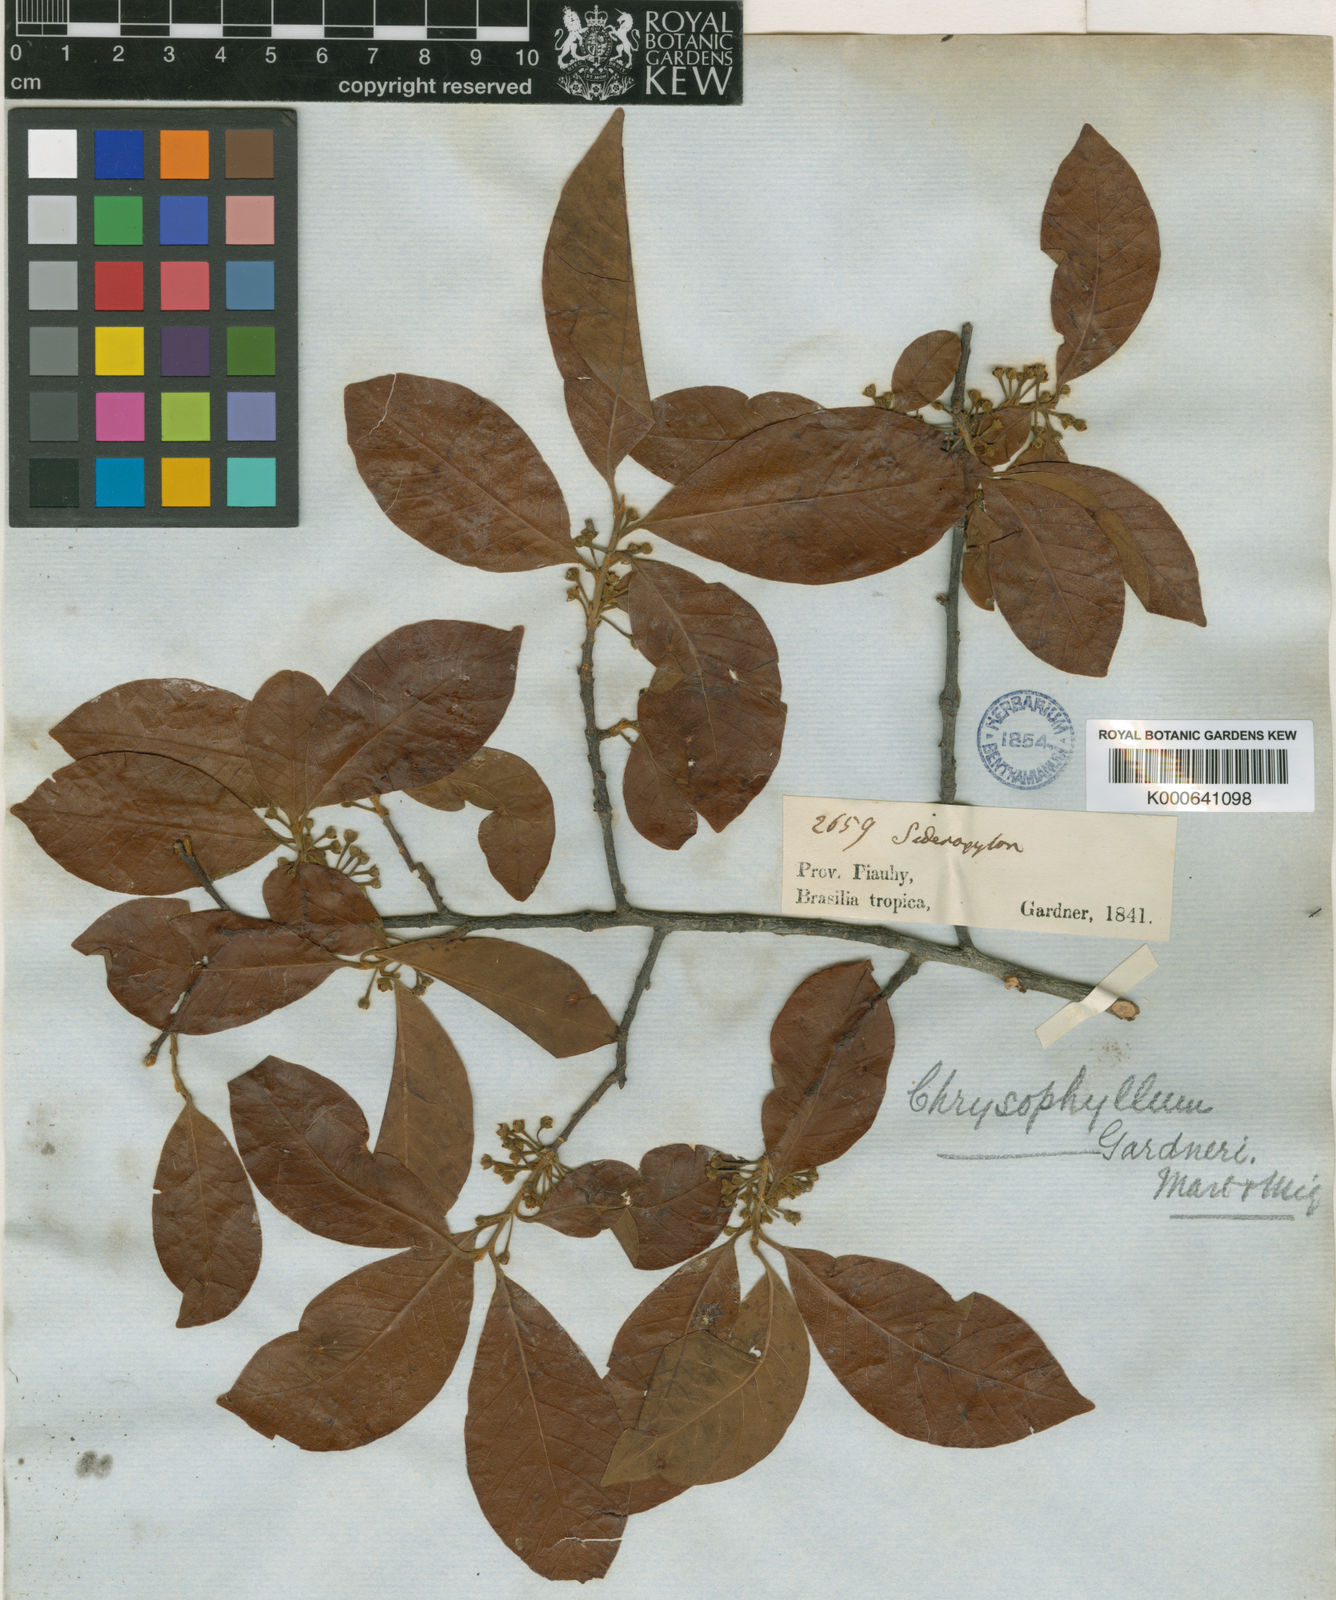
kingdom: Plantae
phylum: Tracheophyta
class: Magnoliopsida
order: Ericales
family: Sapotaceae
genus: Pouteria
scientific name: Pouteria gardneri
